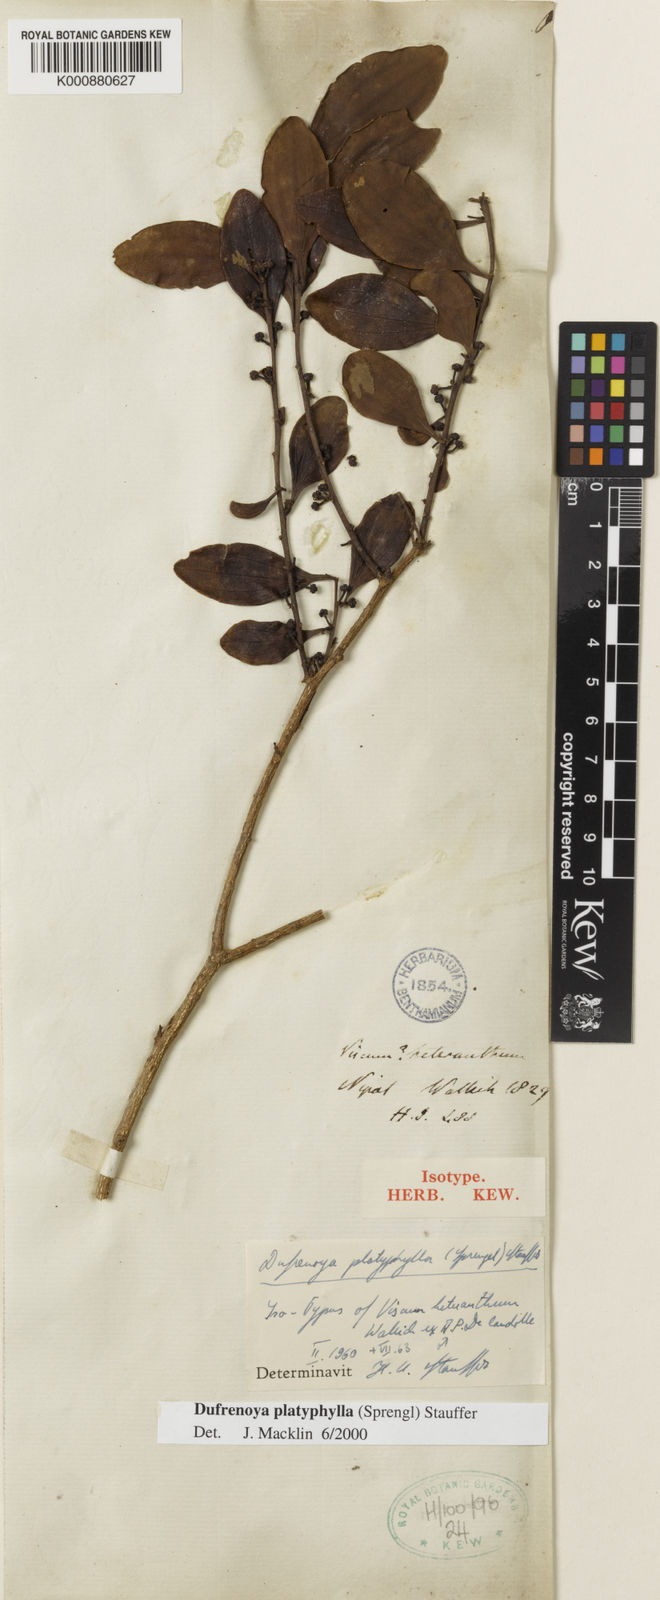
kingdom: Plantae
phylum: Tracheophyta
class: Magnoliopsida
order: Santalales
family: Amphorogynaceae
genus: Dendrotrophe
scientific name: Dendrotrophe platyphylla
